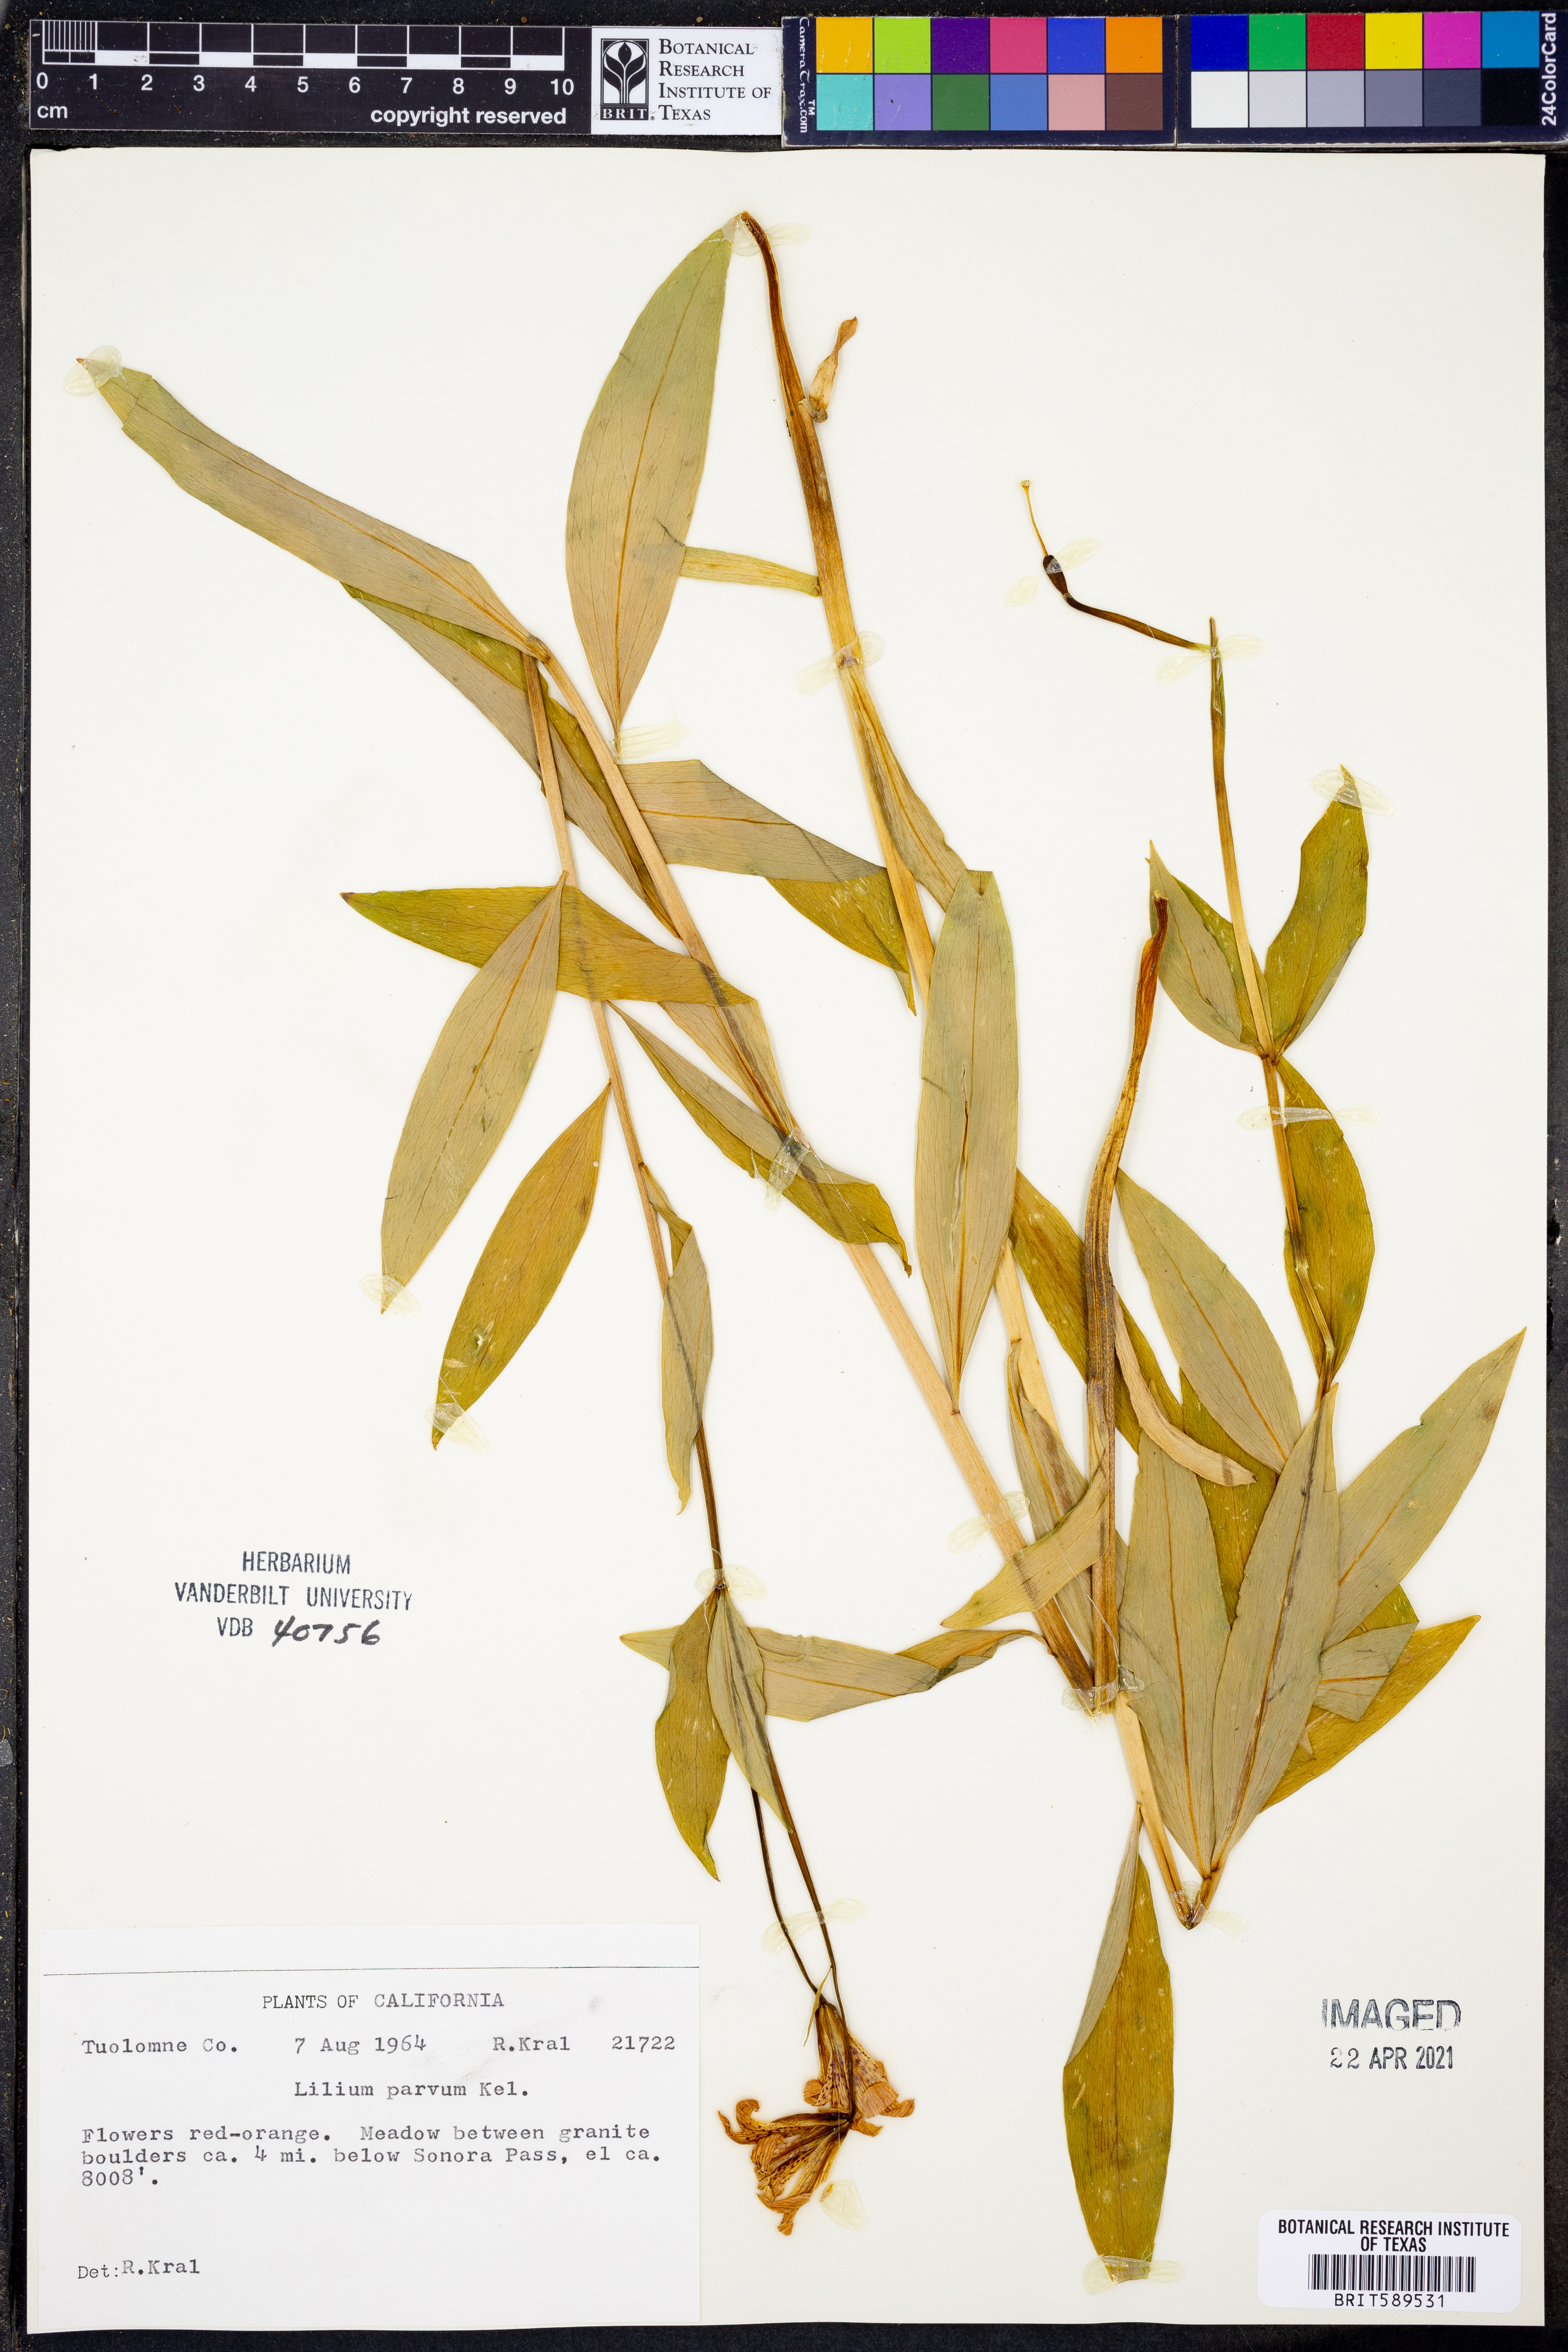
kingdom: Plantae
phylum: Tracheophyta
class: Liliopsida
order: Liliales
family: Liliaceae
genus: Lilium
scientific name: Lilium parvum
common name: Alpine lily
